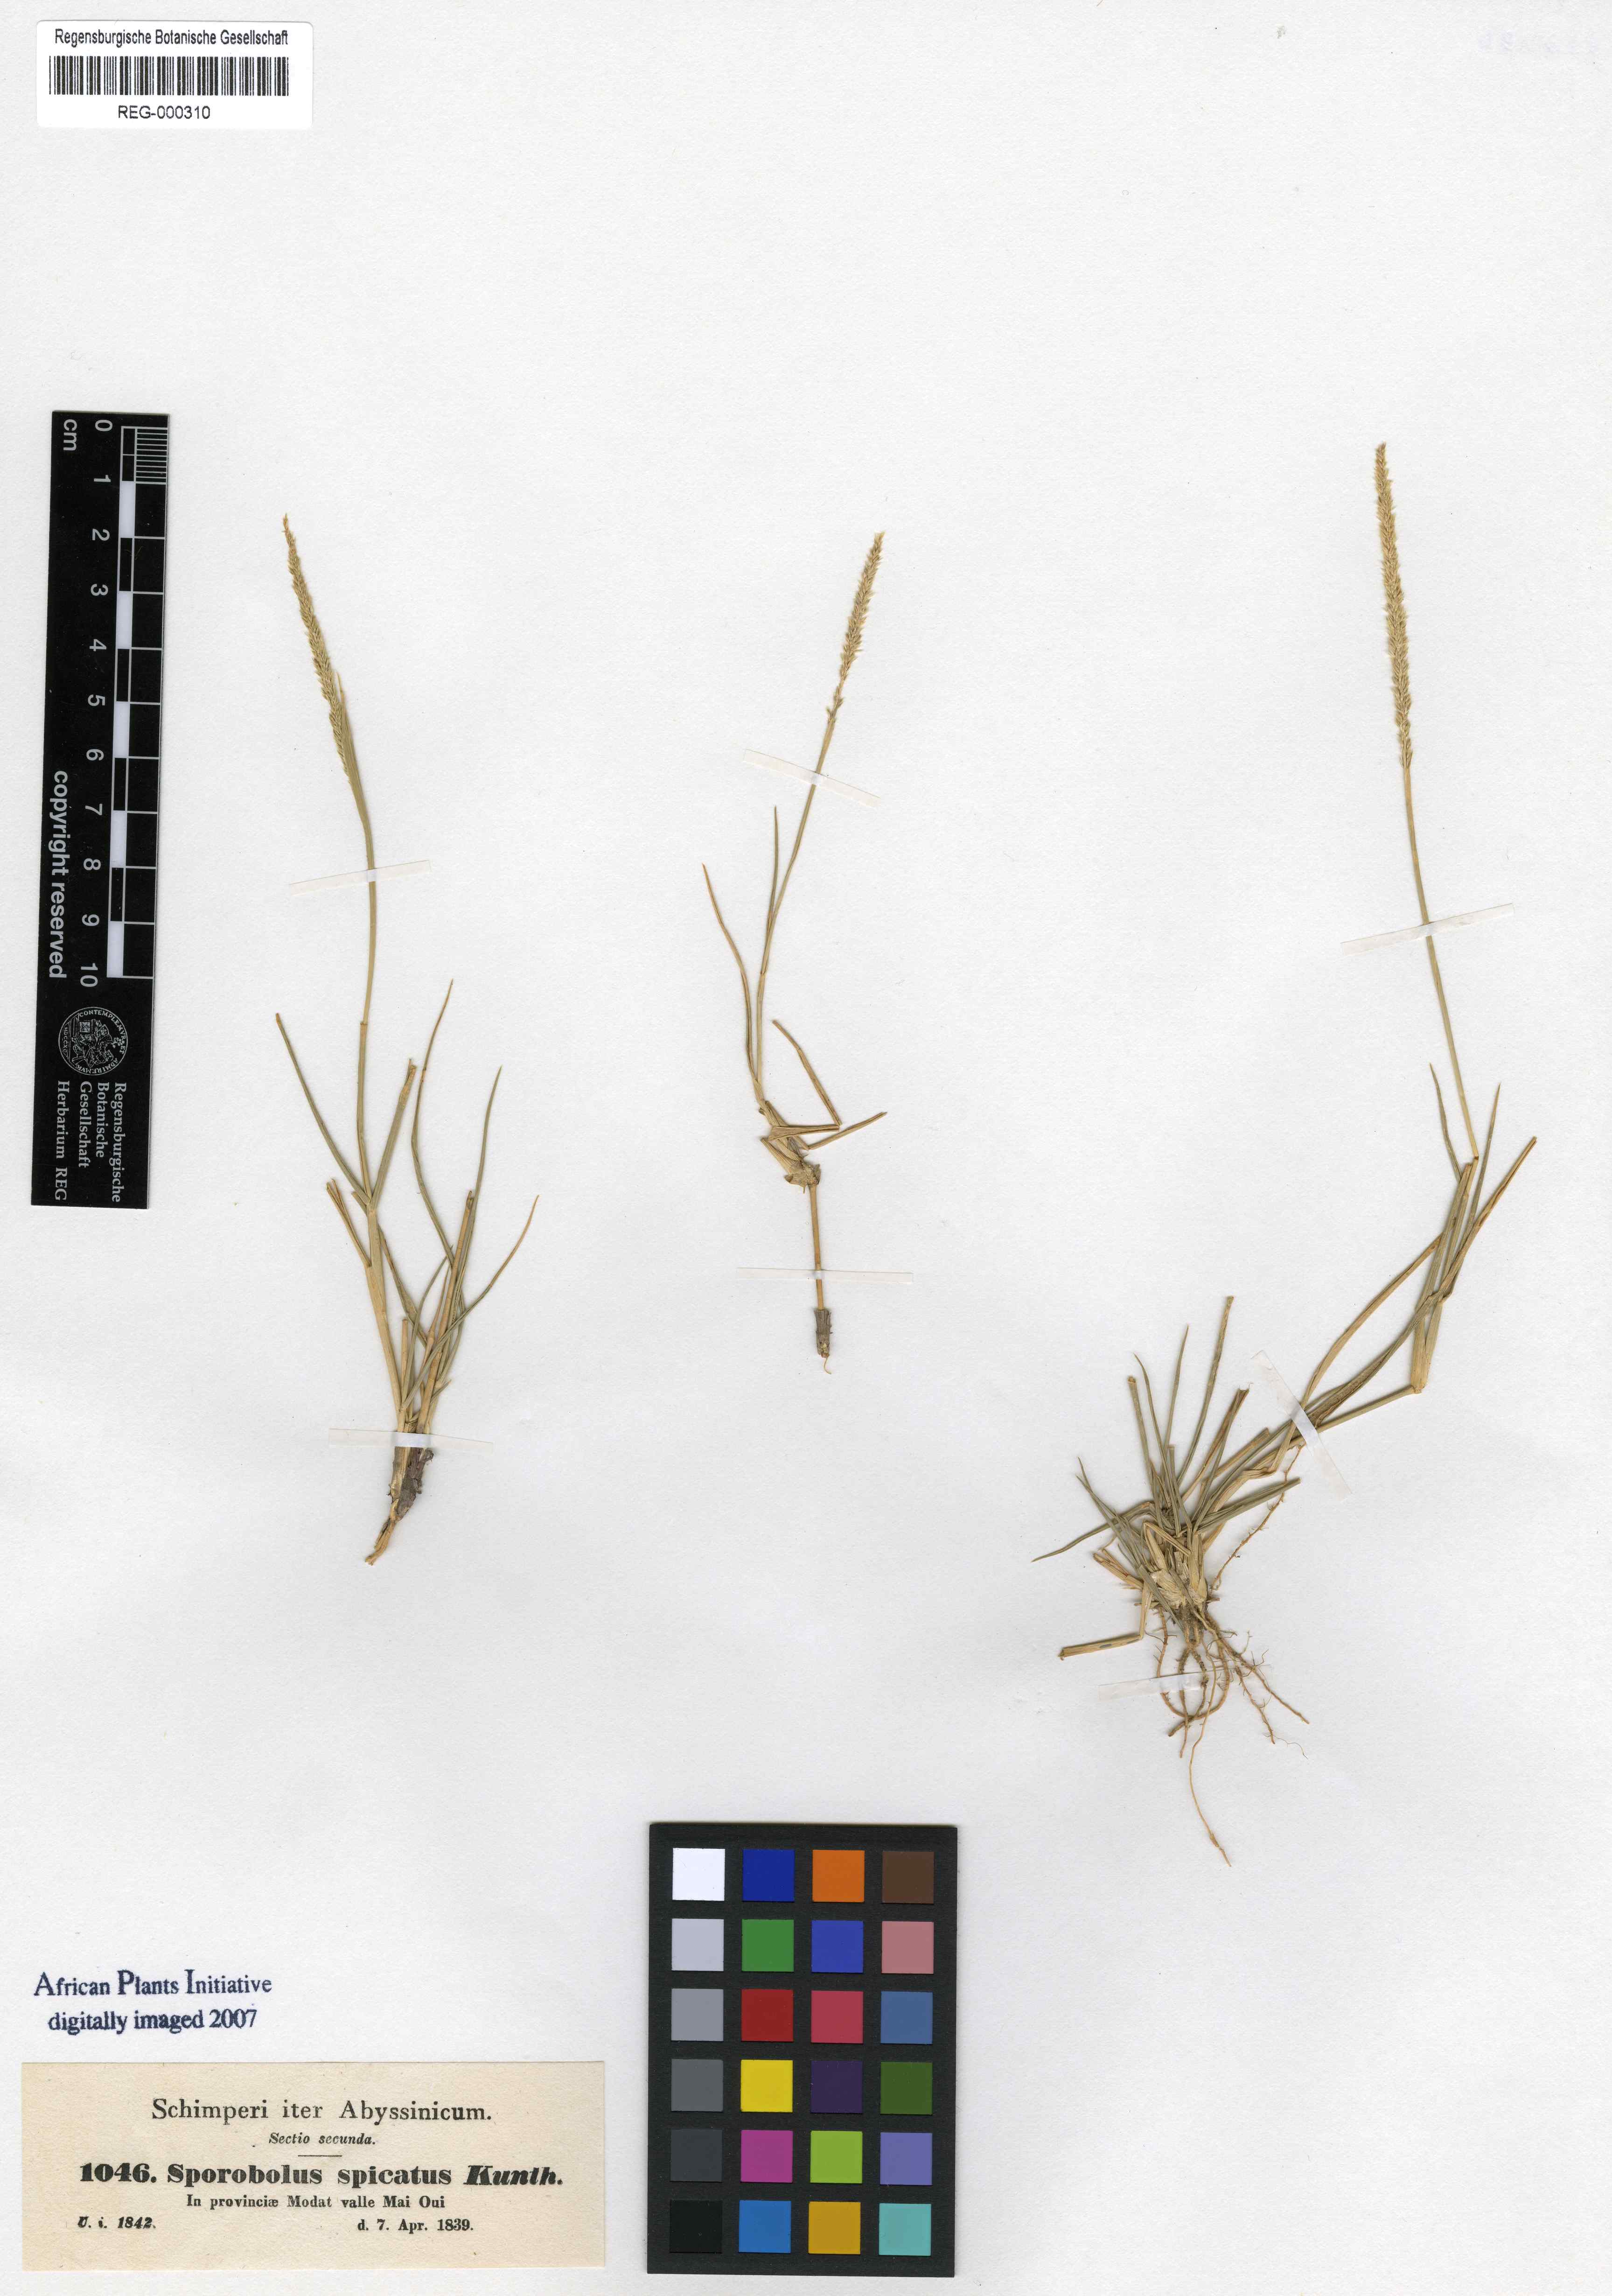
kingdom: Plantae
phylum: Tracheophyta
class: Liliopsida
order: Poales
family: Poaceae
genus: Sporobolus
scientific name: Sporobolus spicatus
